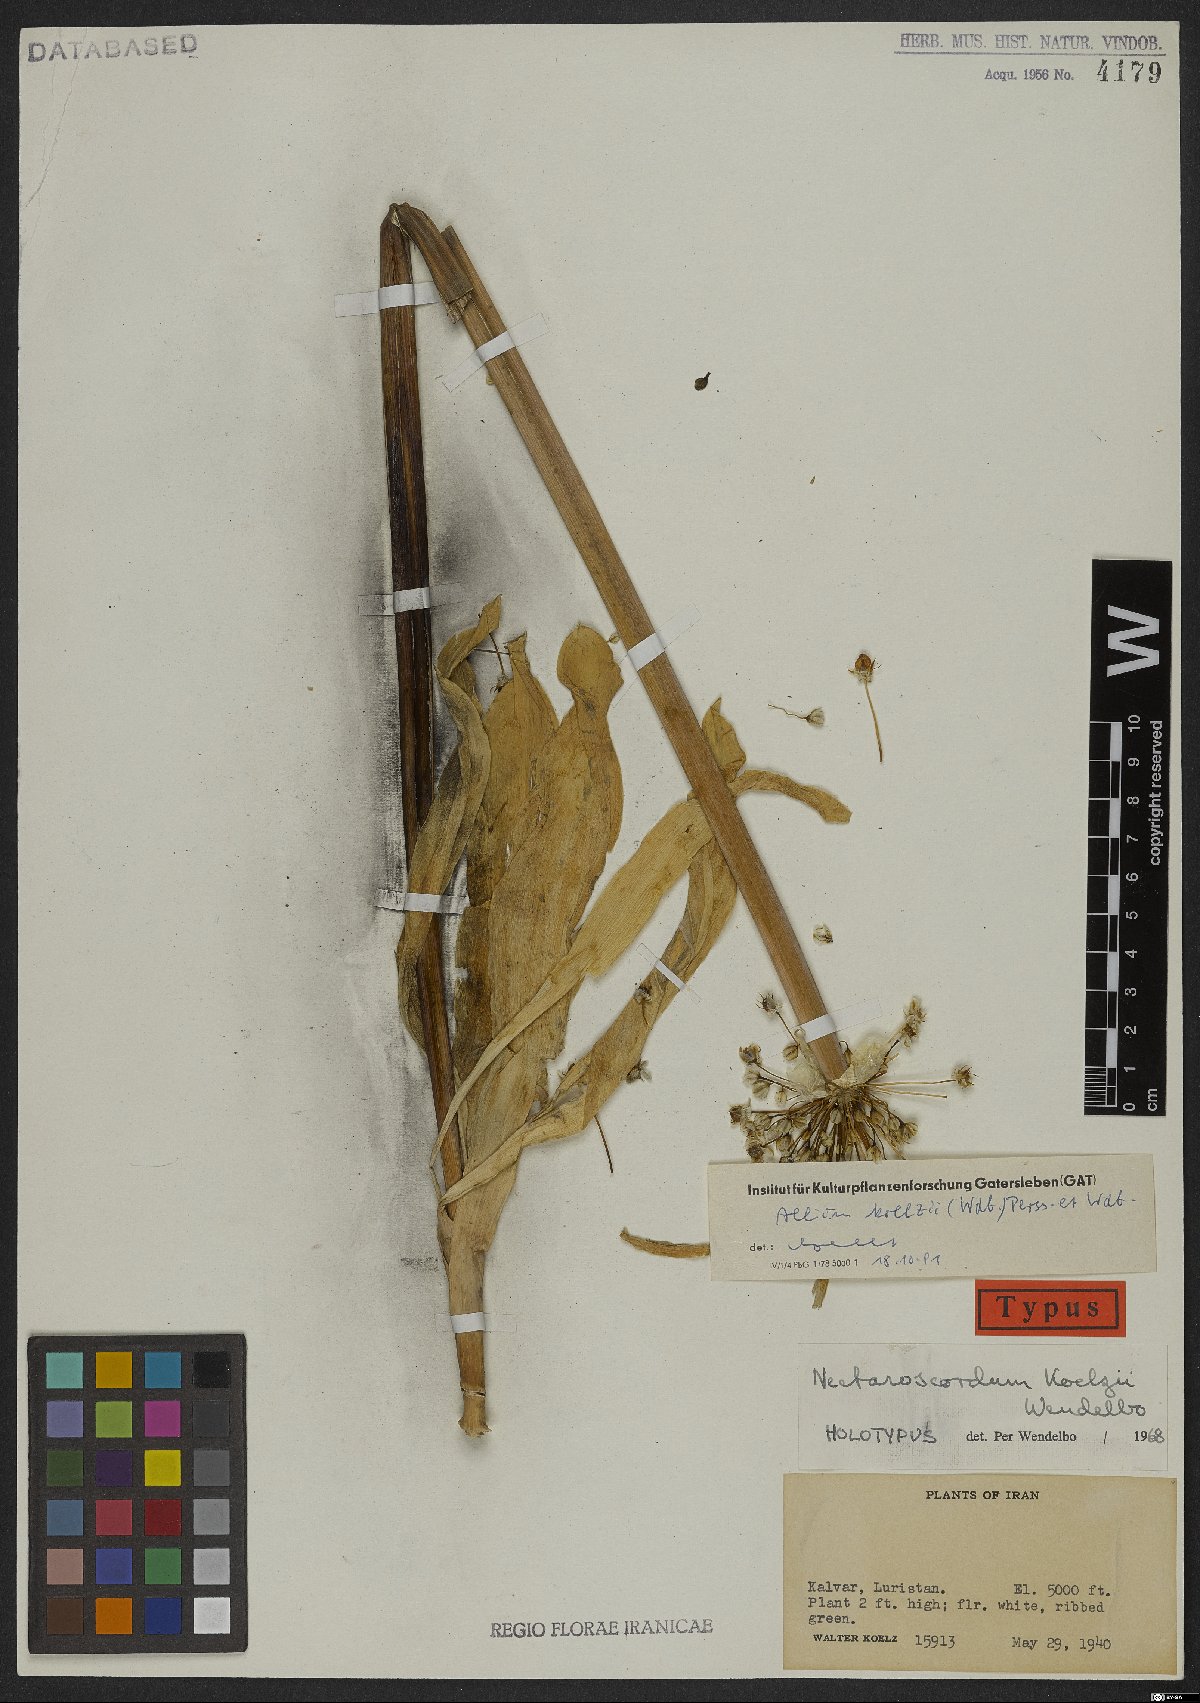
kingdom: Plantae
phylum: Tracheophyta
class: Liliopsida
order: Asparagales
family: Amaryllidaceae
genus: Allium
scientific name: Allium koelzii
